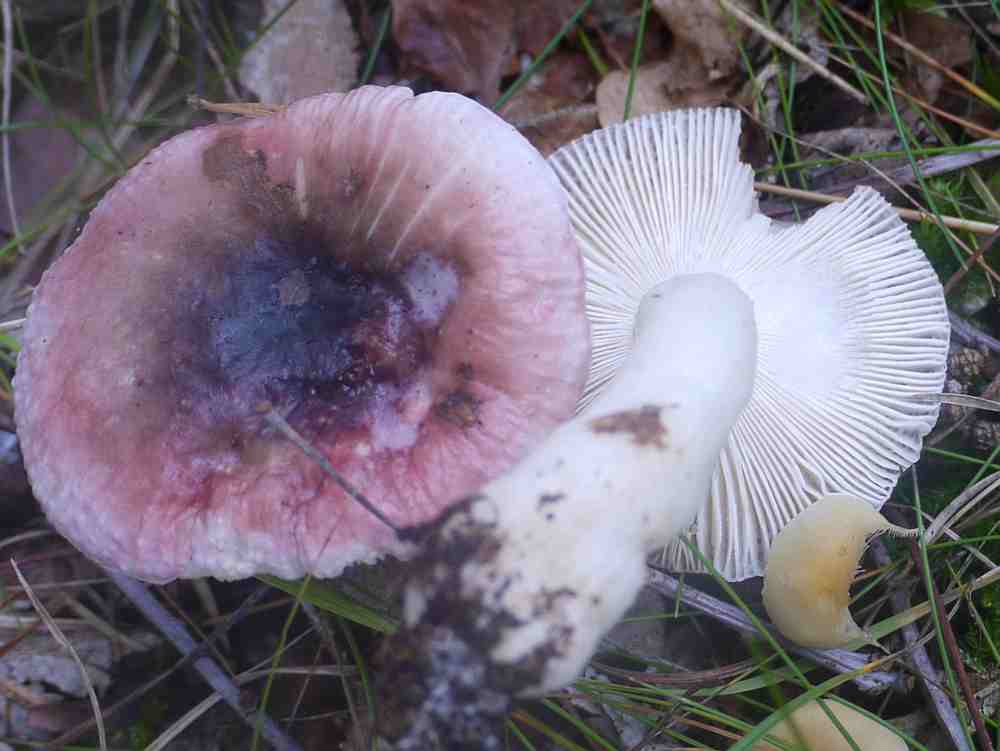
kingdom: Fungi
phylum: Basidiomycota
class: Agaricomycetes
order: Russulales
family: Russulaceae
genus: Russula
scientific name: Russula fragilis
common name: Fragile brittlegill
